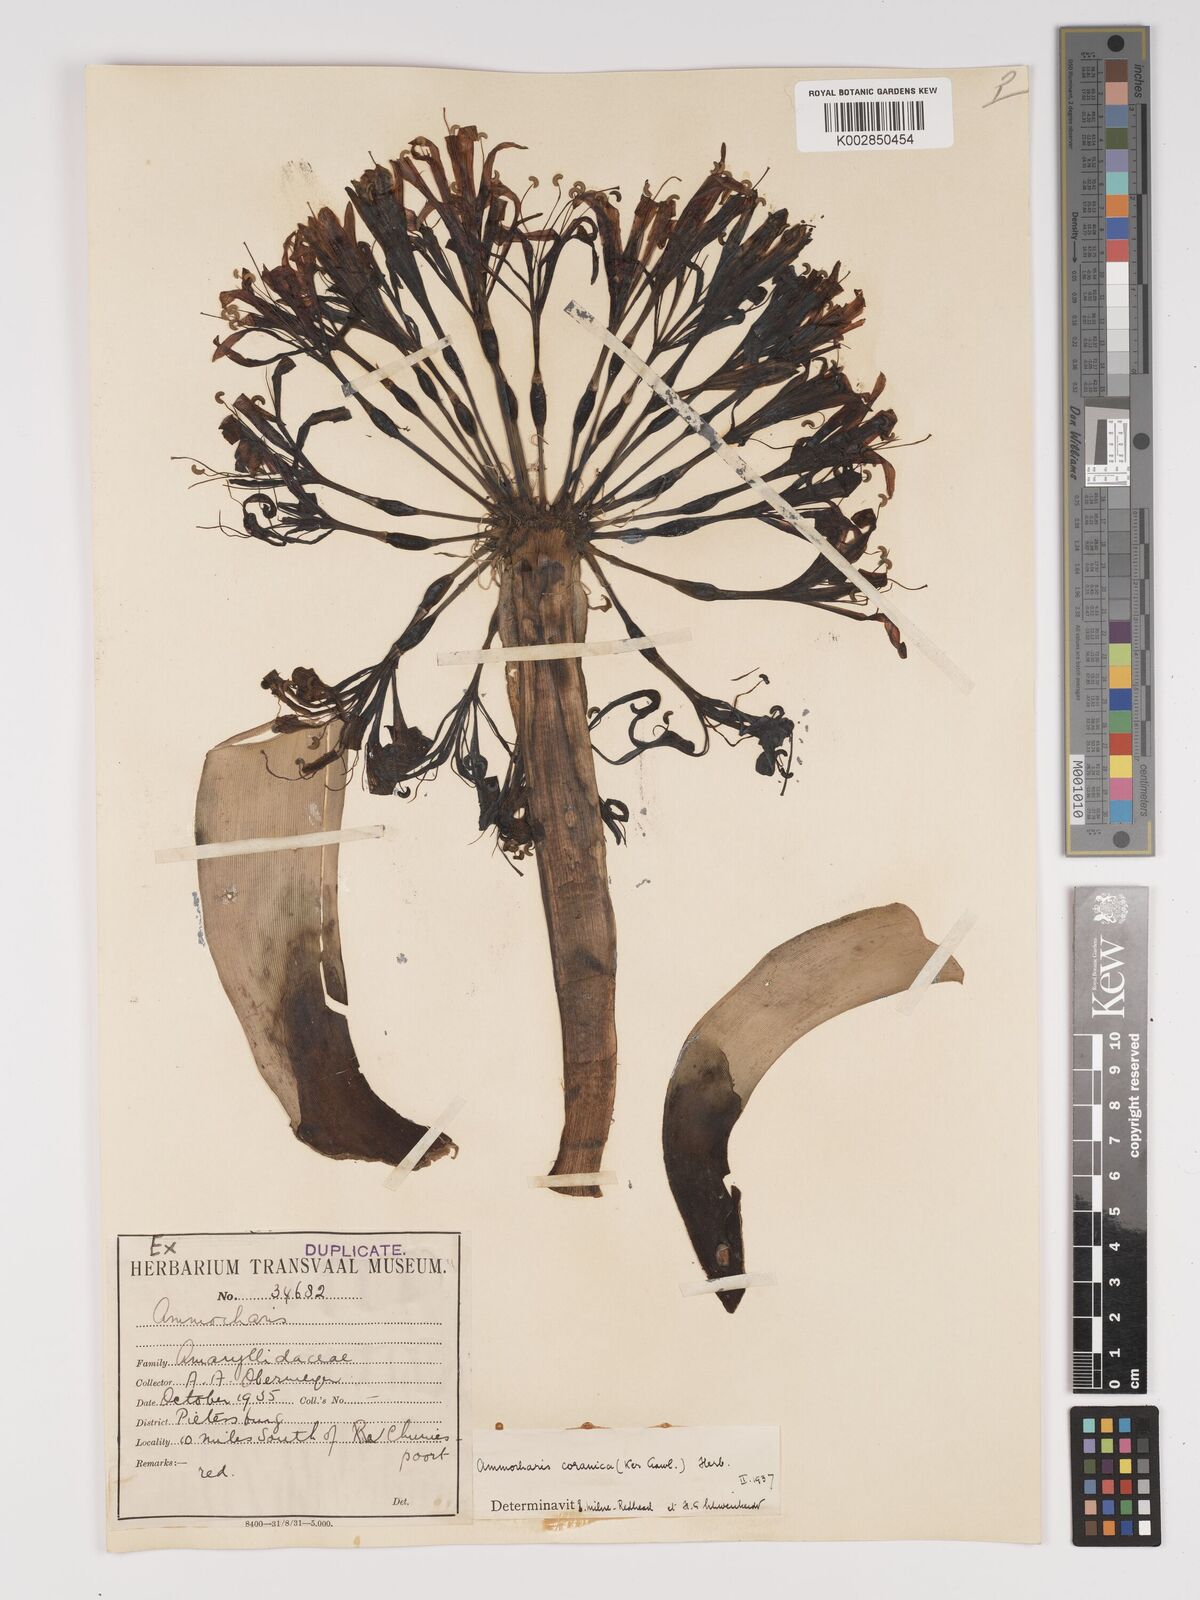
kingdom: Plantae
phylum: Tracheophyta
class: Liliopsida
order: Asparagales
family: Amaryllidaceae
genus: Ammocharis
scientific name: Ammocharis coranica
